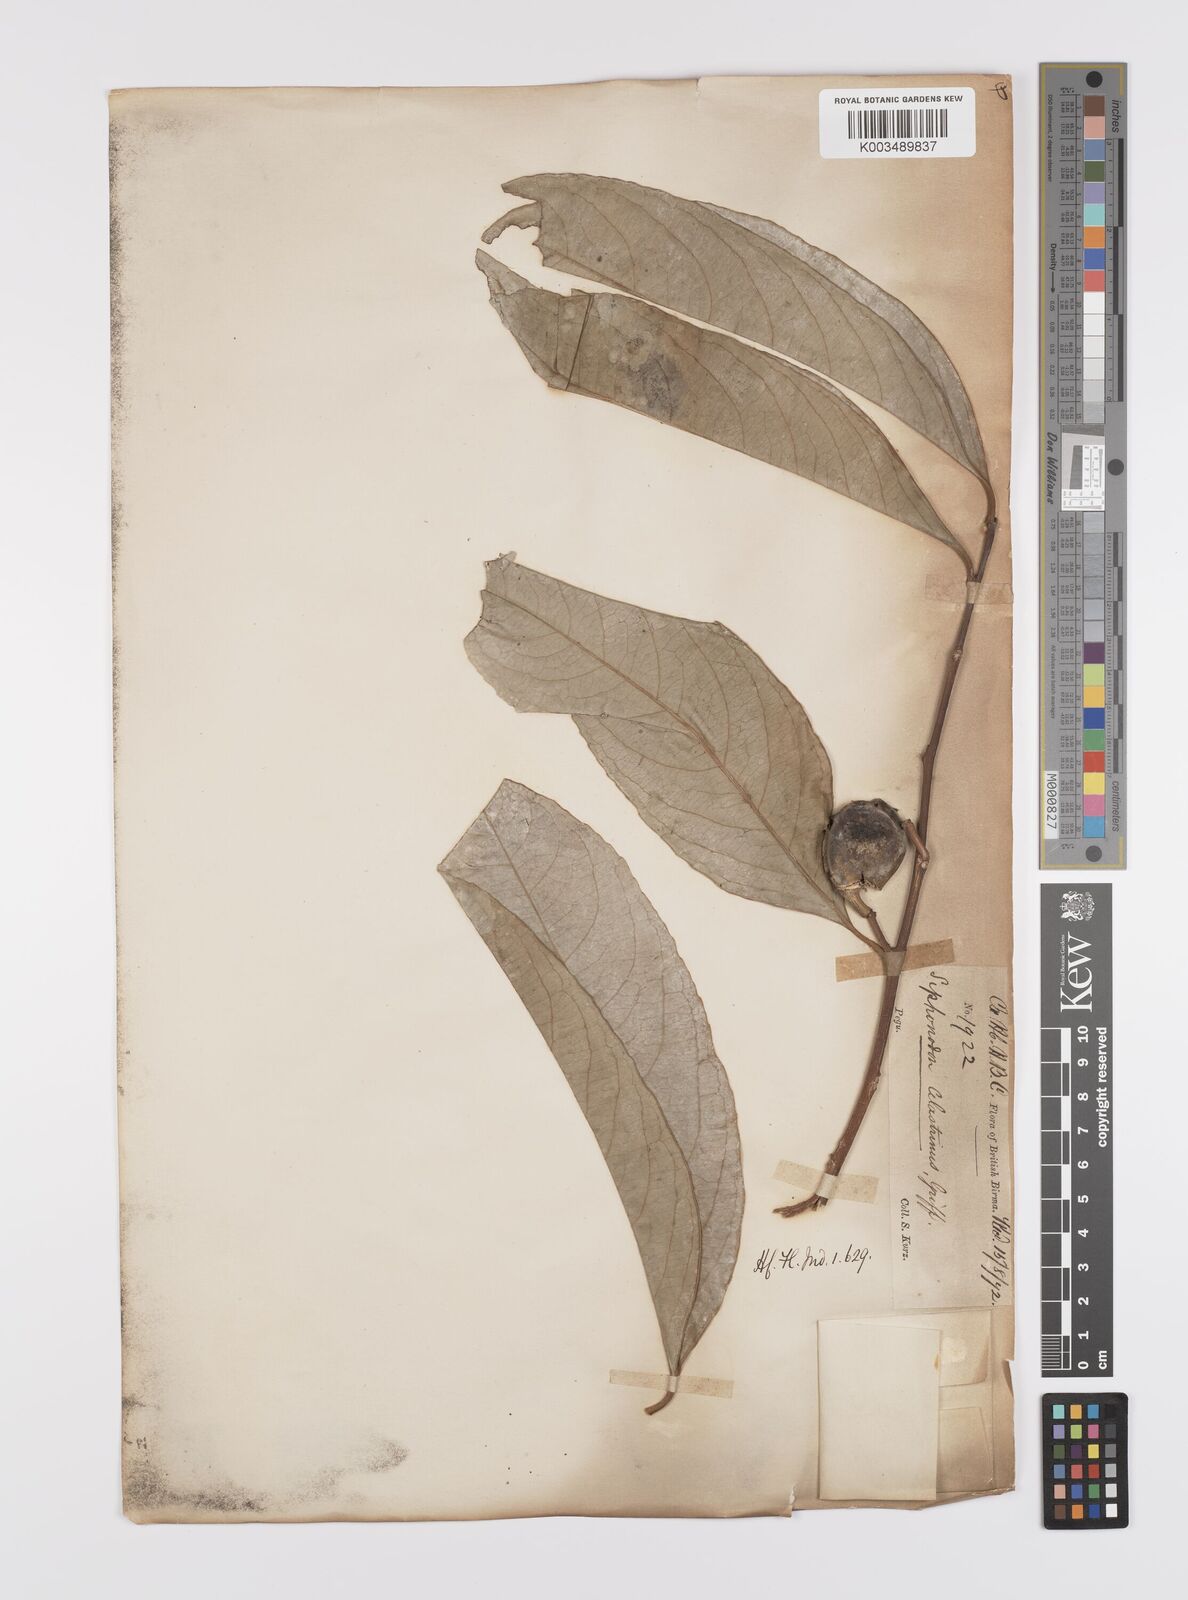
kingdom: Plantae
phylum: Tracheophyta
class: Magnoliopsida
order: Celastrales
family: Celastraceae
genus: Siphonodon
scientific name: Siphonodon celastrineus
